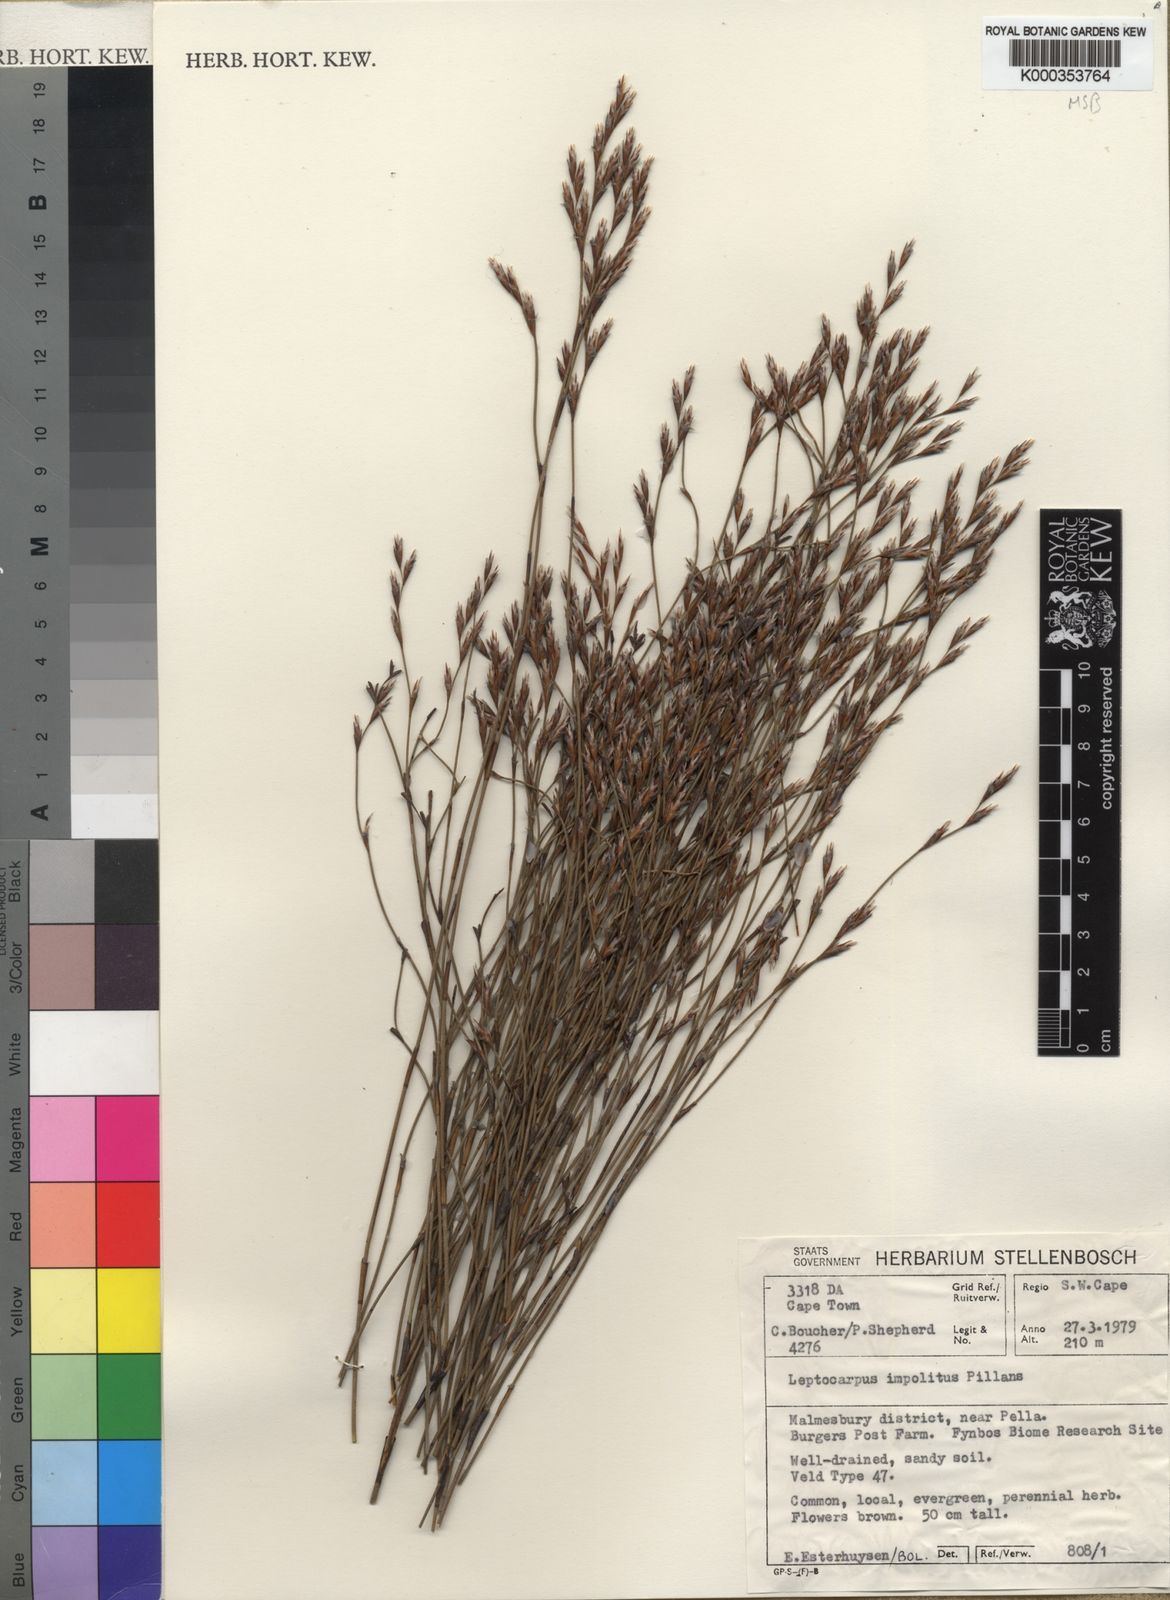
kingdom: Plantae
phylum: Tracheophyta
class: Liliopsida
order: Poales
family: Restionaceae
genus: Restio
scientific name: Restio impolitus
